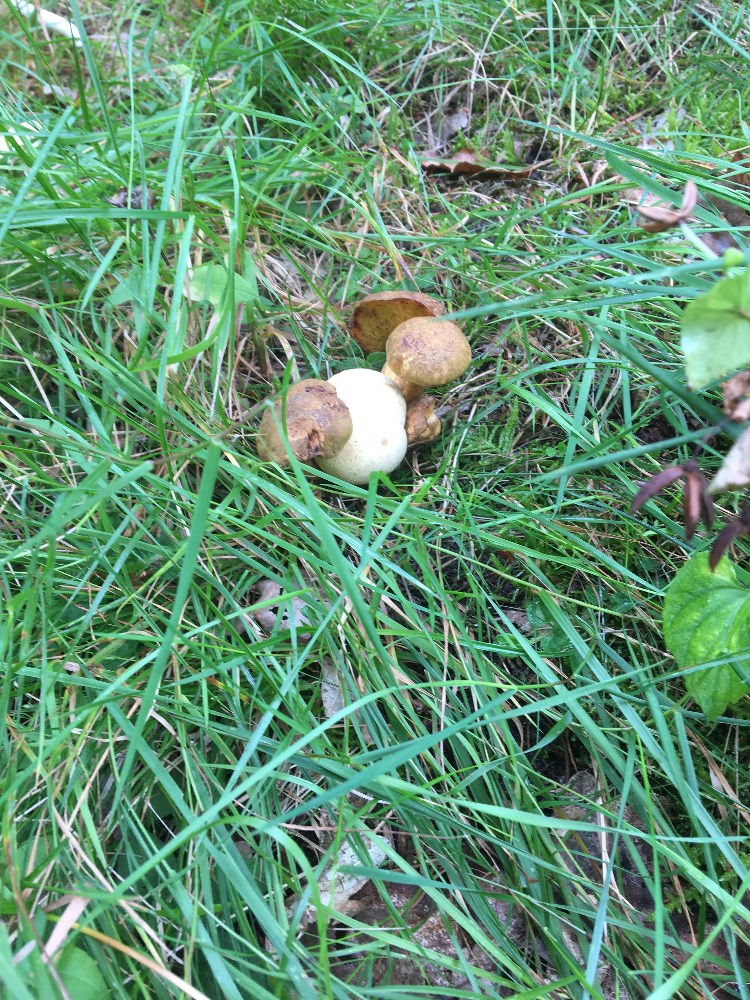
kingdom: Fungi
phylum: Basidiomycota
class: Agaricomycetes
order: Boletales
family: Boletaceae
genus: Pseudoboletus
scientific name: Pseudoboletus parasiticus
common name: snyltende rørhat
